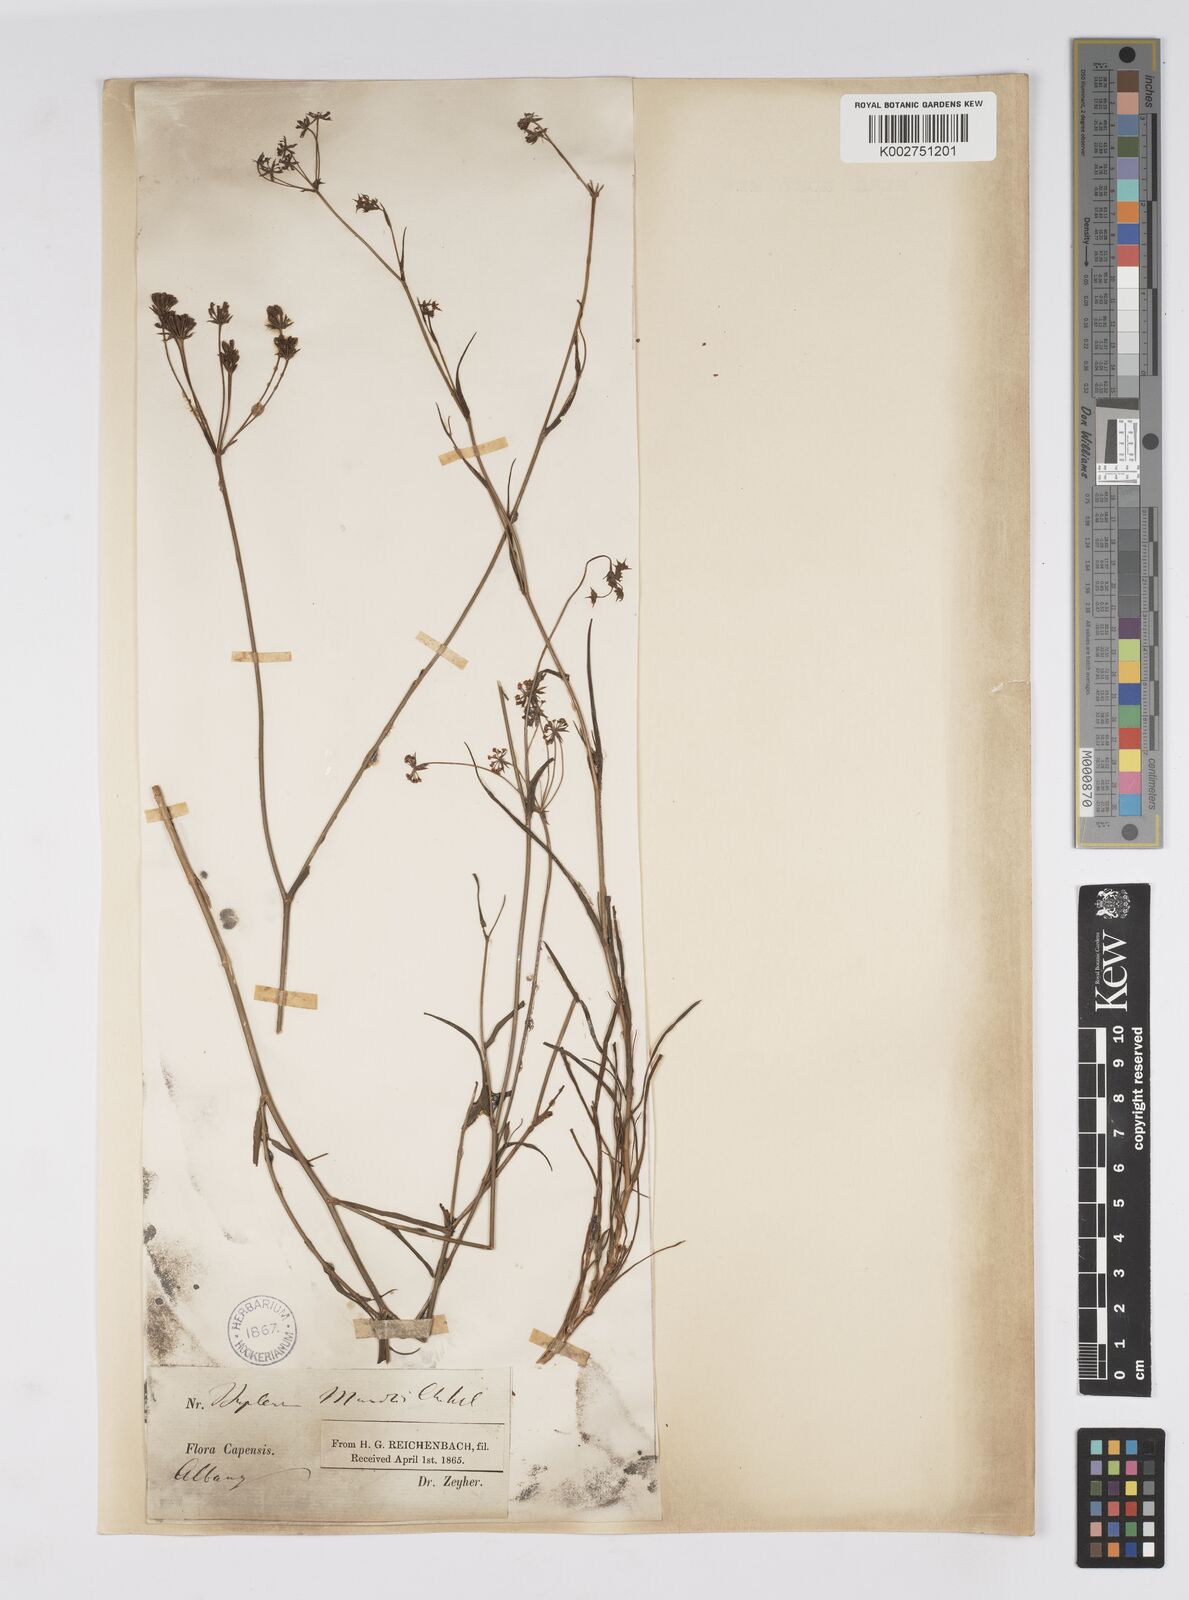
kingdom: Plantae
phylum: Tracheophyta
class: Magnoliopsida
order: Apiales
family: Apiaceae
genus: Bupleurum
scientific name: Bupleurum mundii
